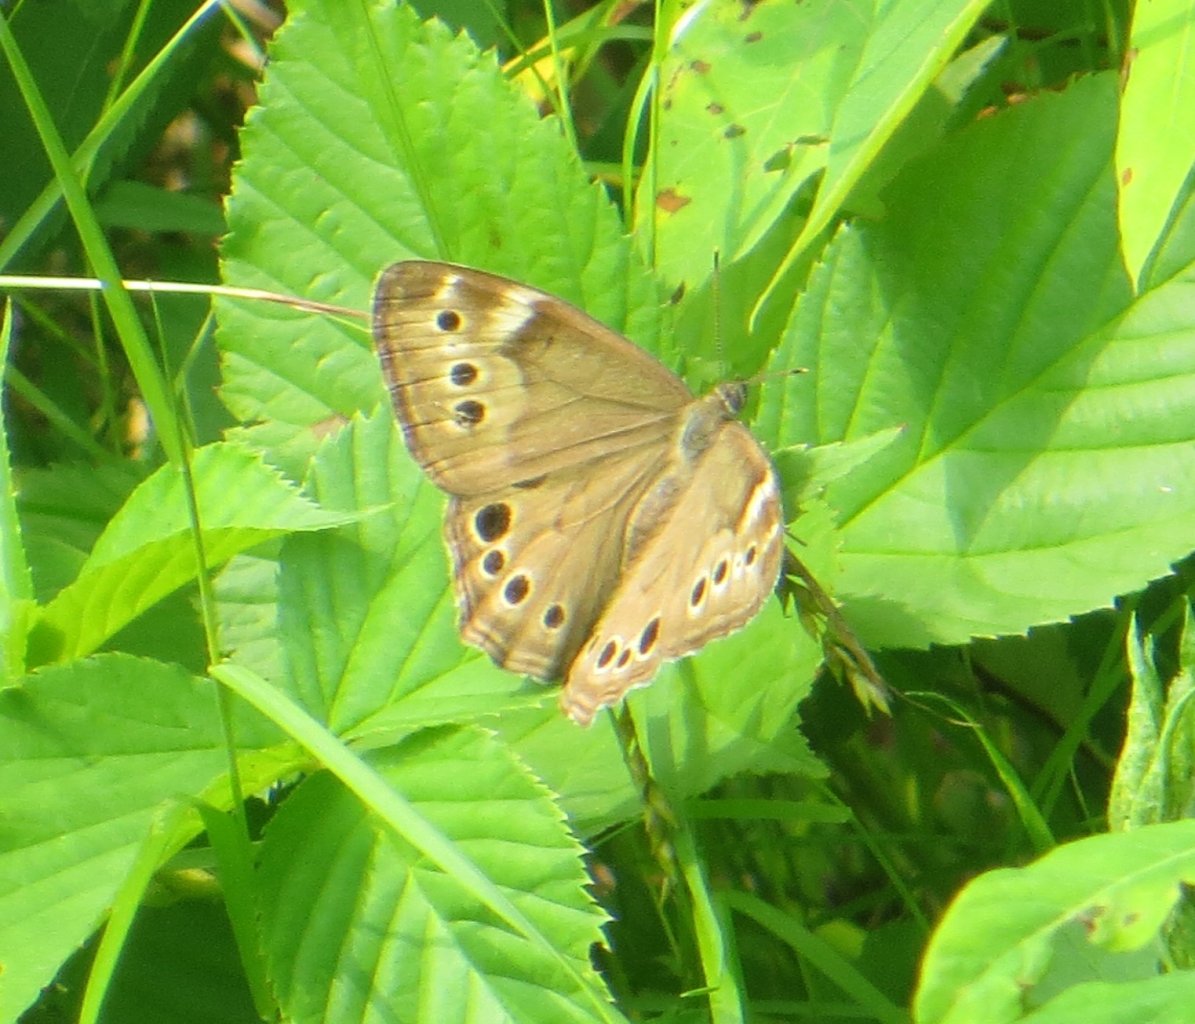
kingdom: Animalia
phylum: Arthropoda
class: Insecta
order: Lepidoptera
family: Nymphalidae
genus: Lethe
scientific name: Lethe anthedon
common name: Northern Pearly-Eye
